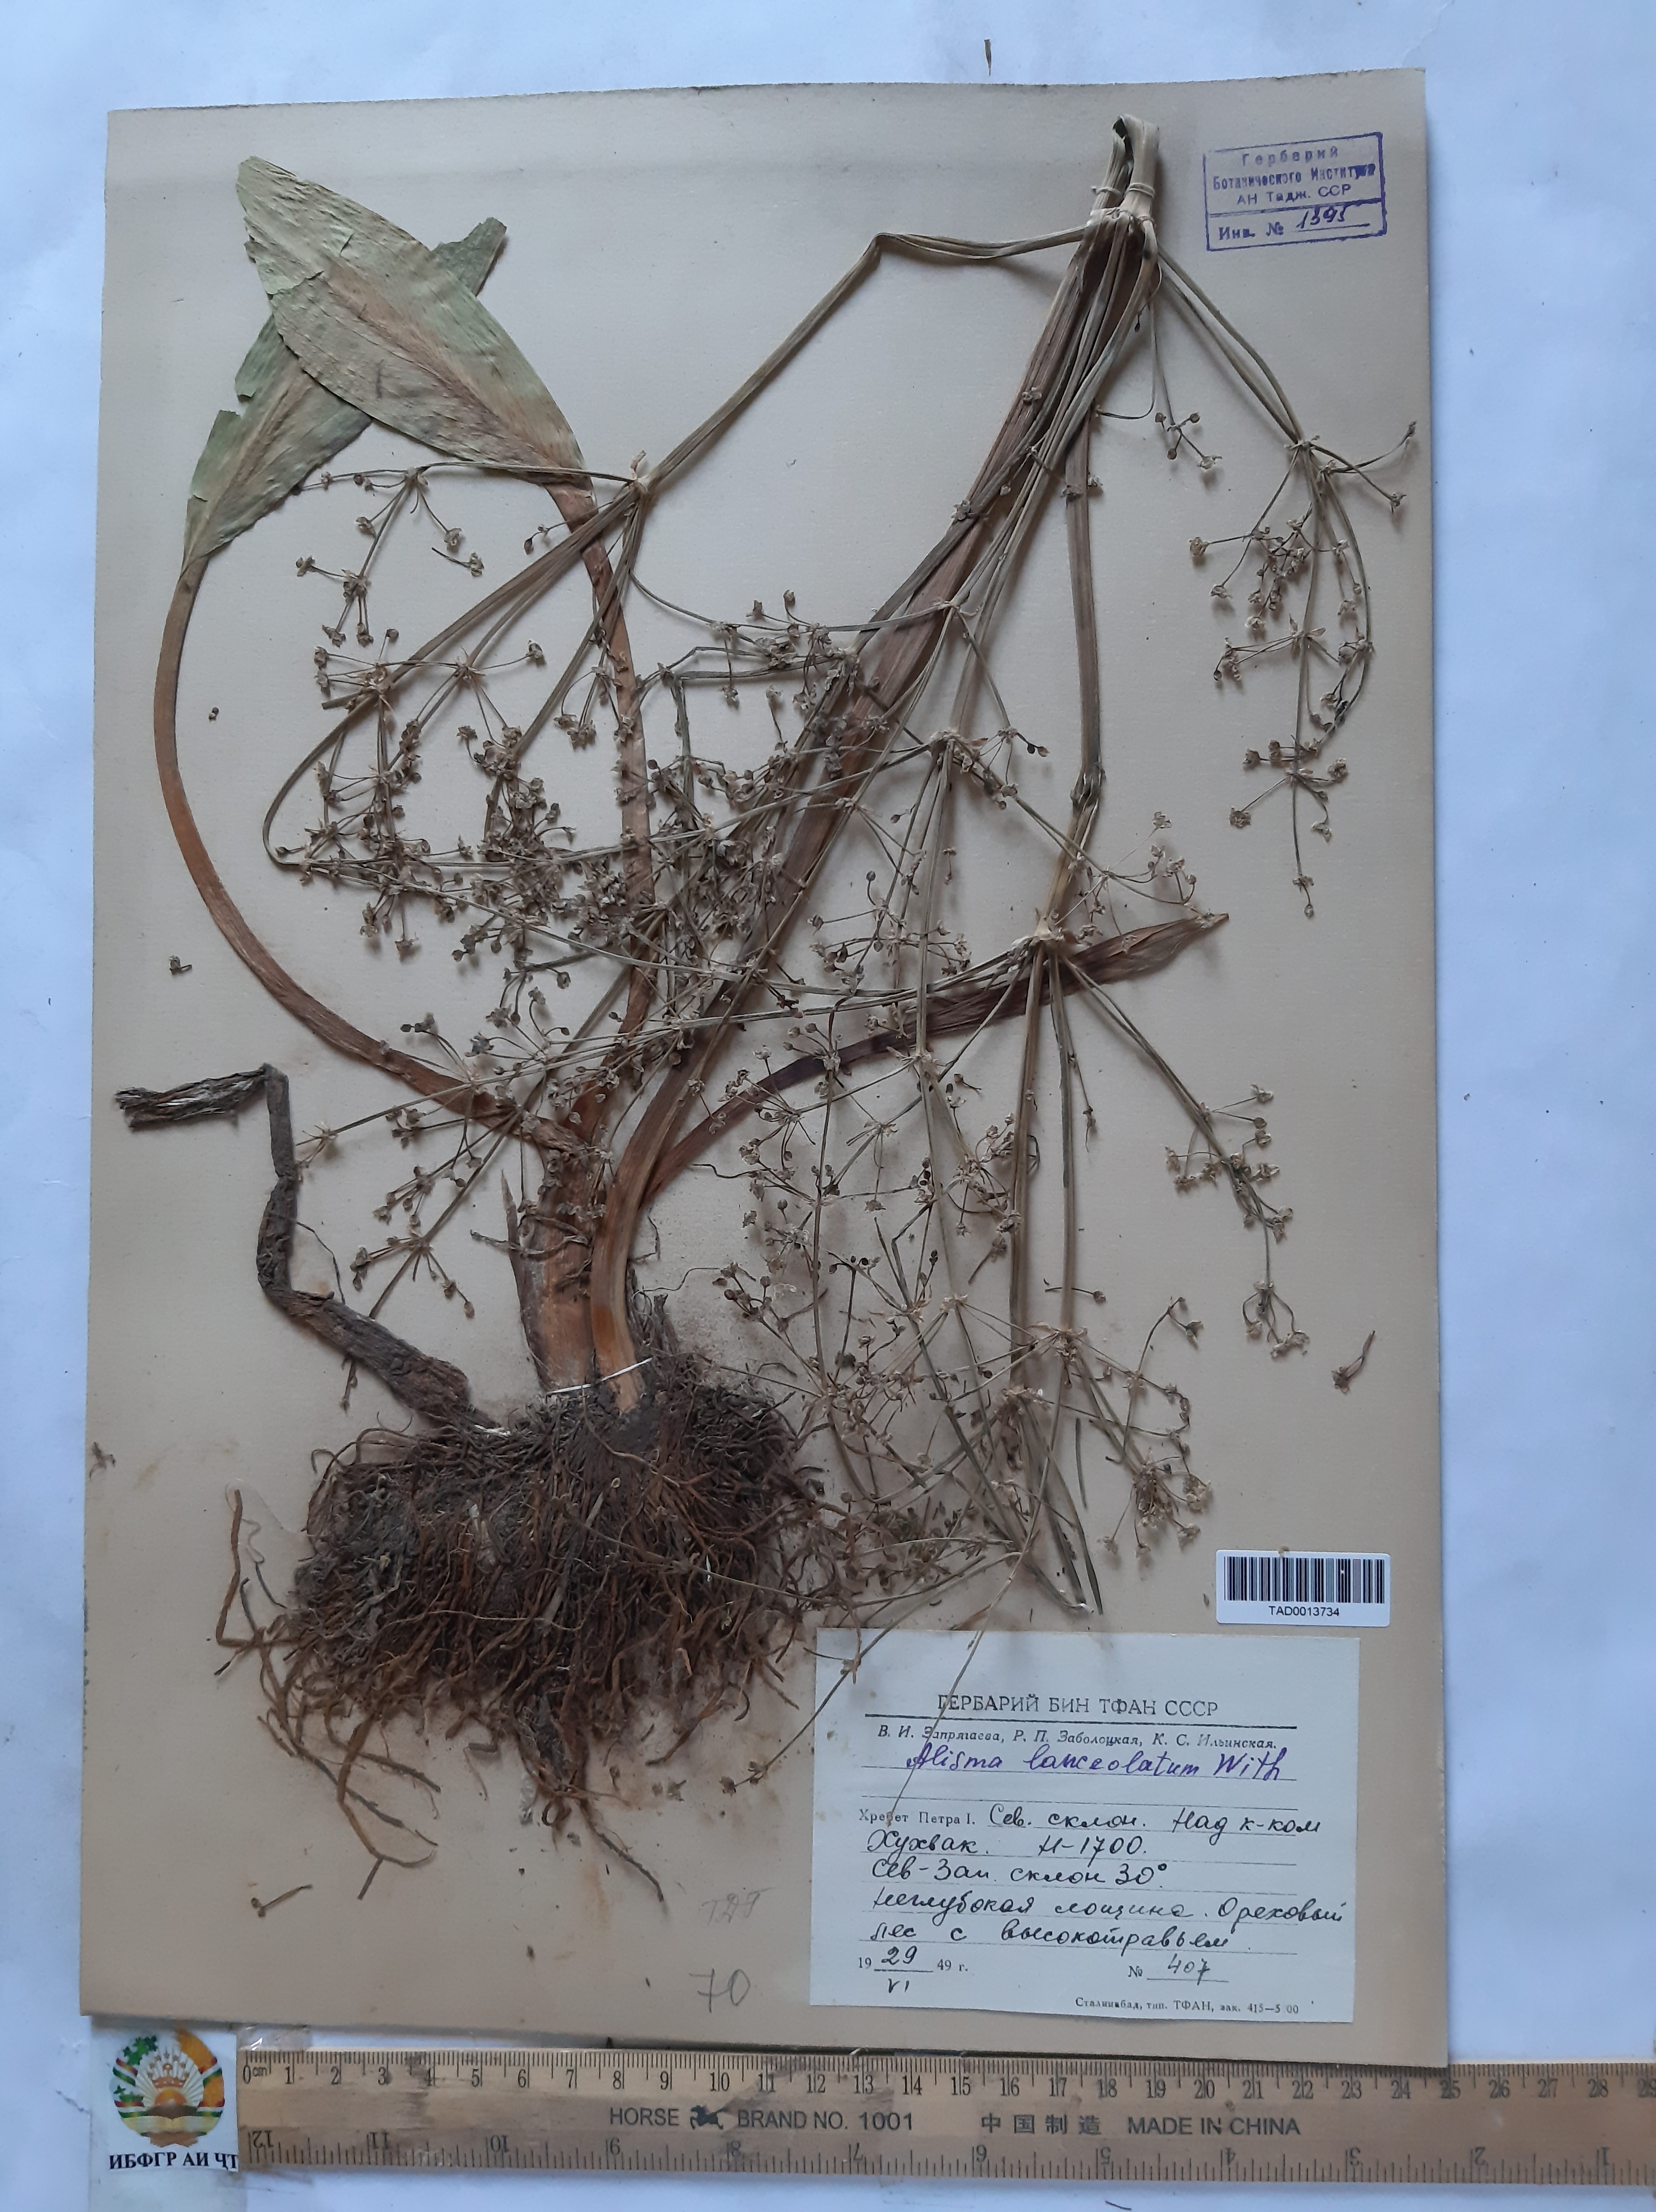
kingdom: Plantae
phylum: Tracheophyta
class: Liliopsida
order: Alismatales
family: Alismataceae
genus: Alisma
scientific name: Alisma lanceolatum
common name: Narrow-leaved water-plantain
